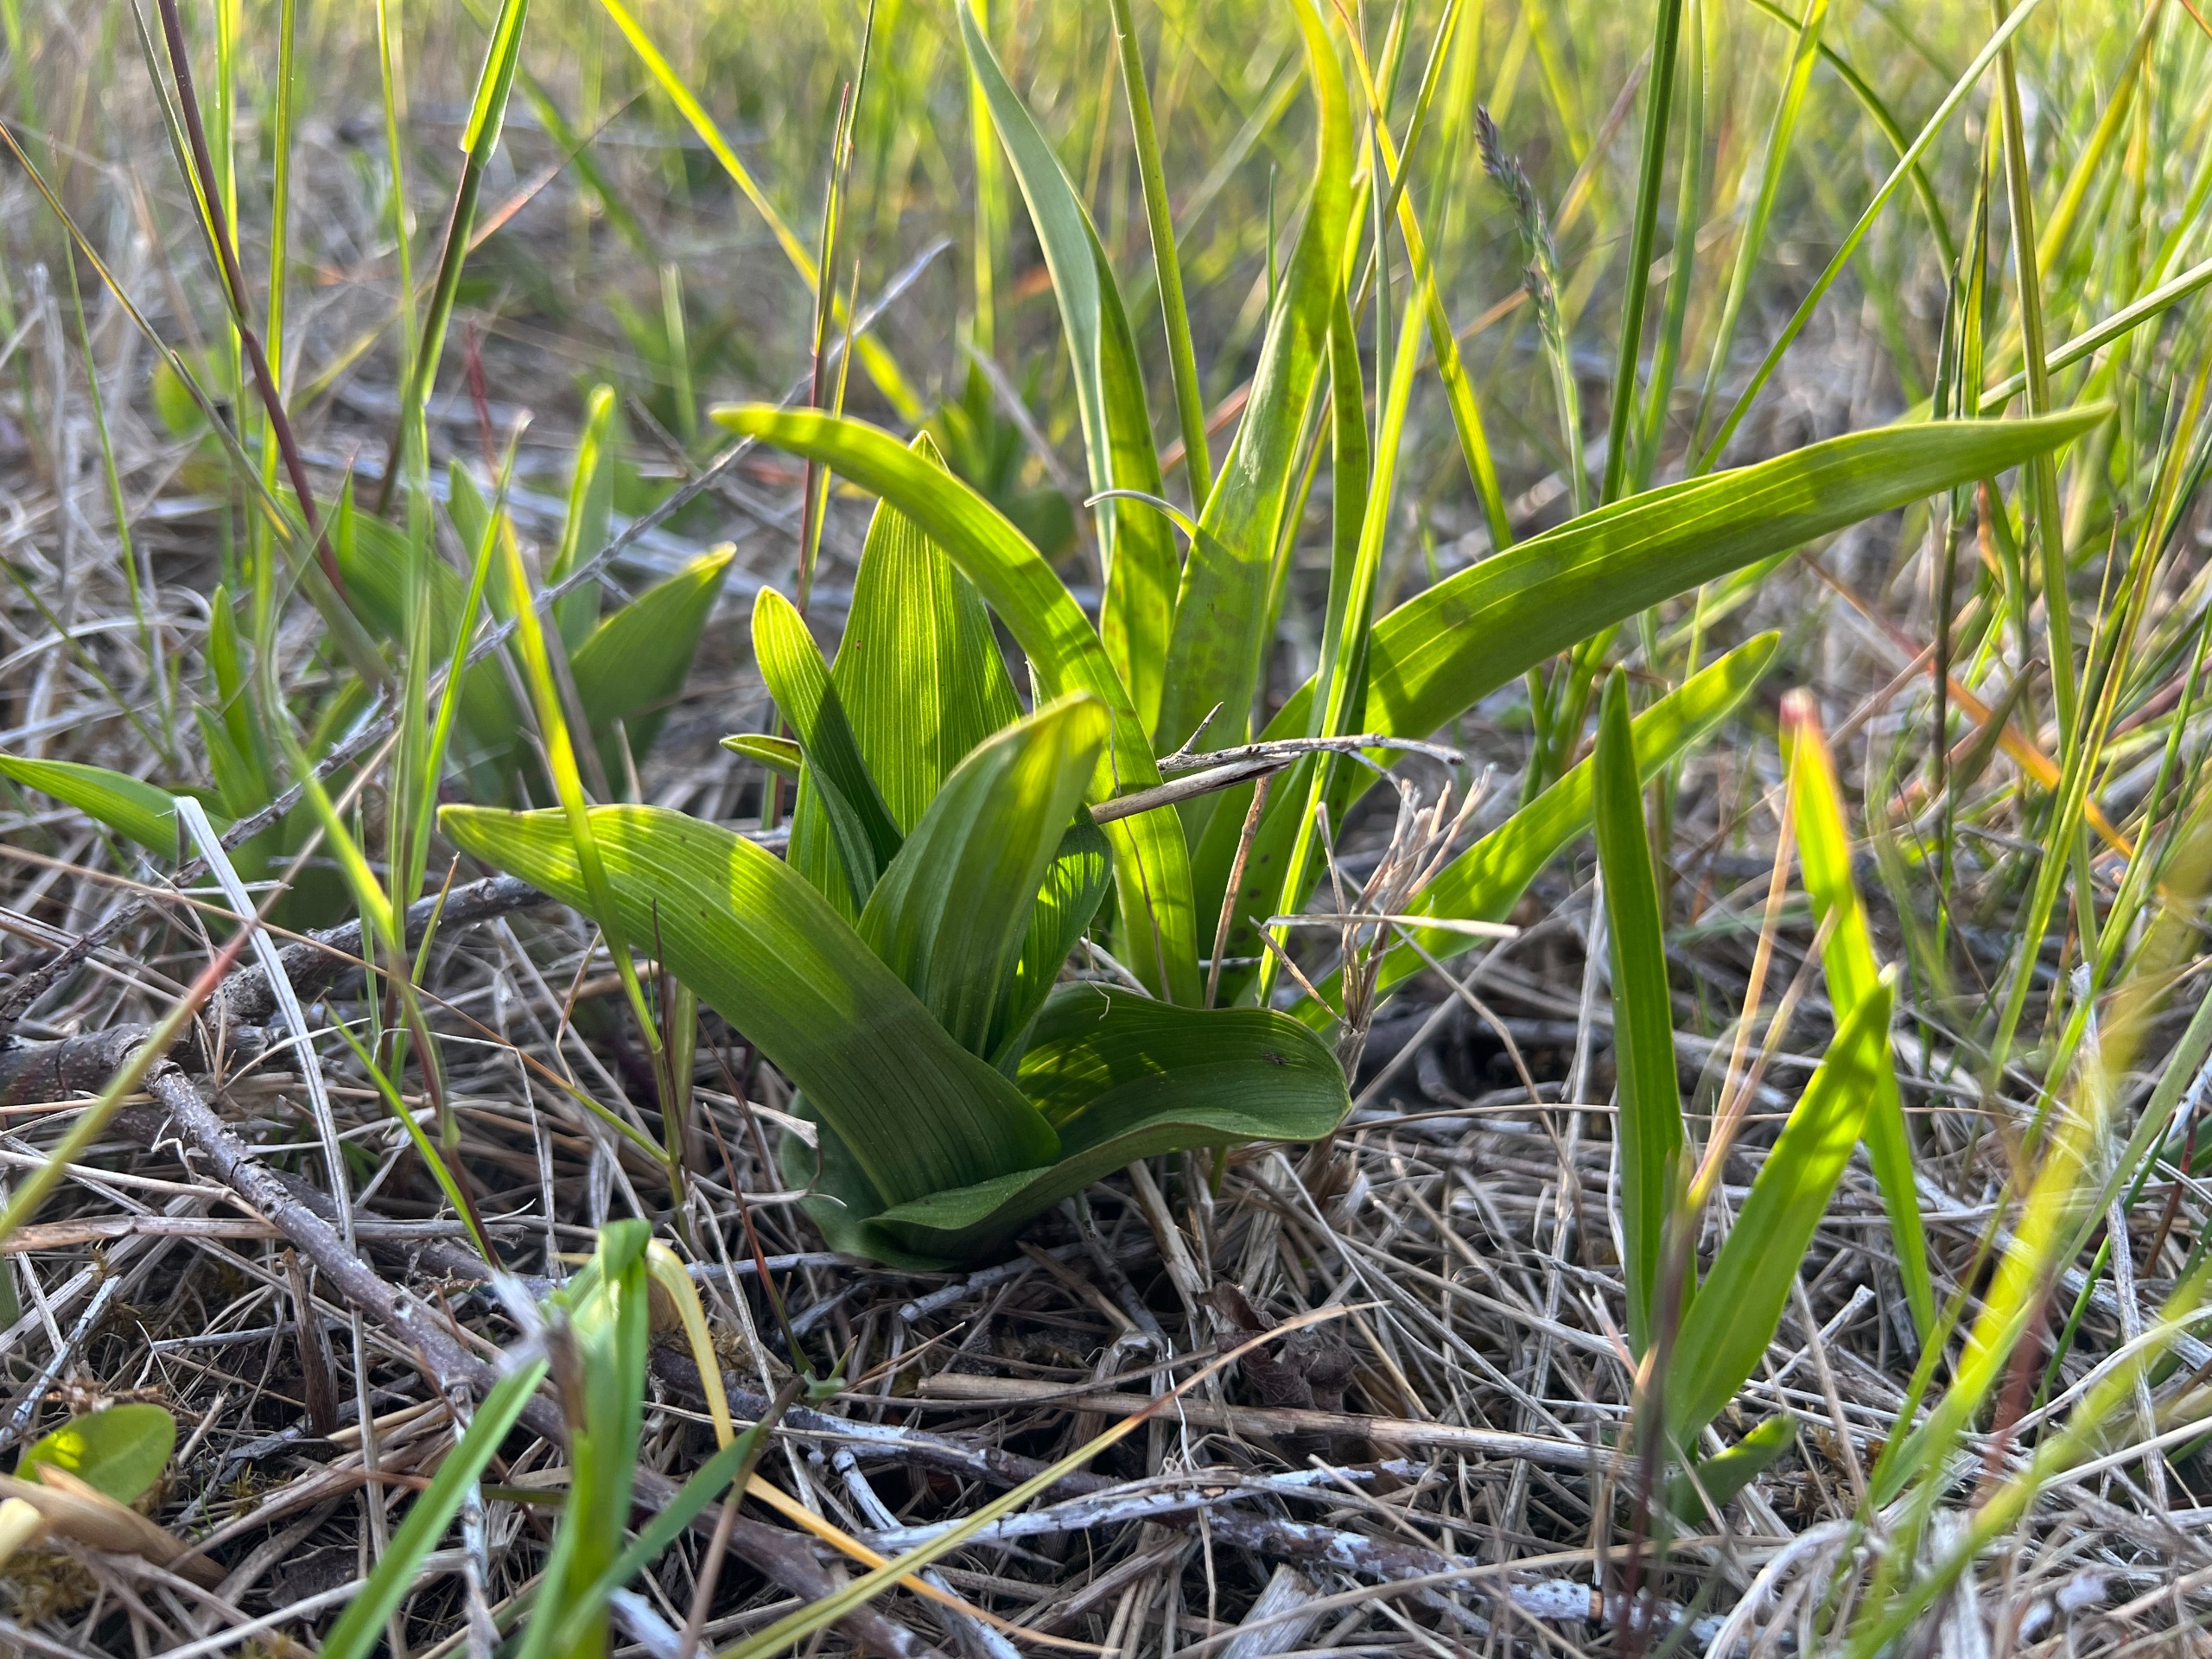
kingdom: Plantae
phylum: Tracheophyta
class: Liliopsida
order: Asparagales
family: Orchidaceae
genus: Epipactis
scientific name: Epipactis palustris
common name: Sump-hullæbe
